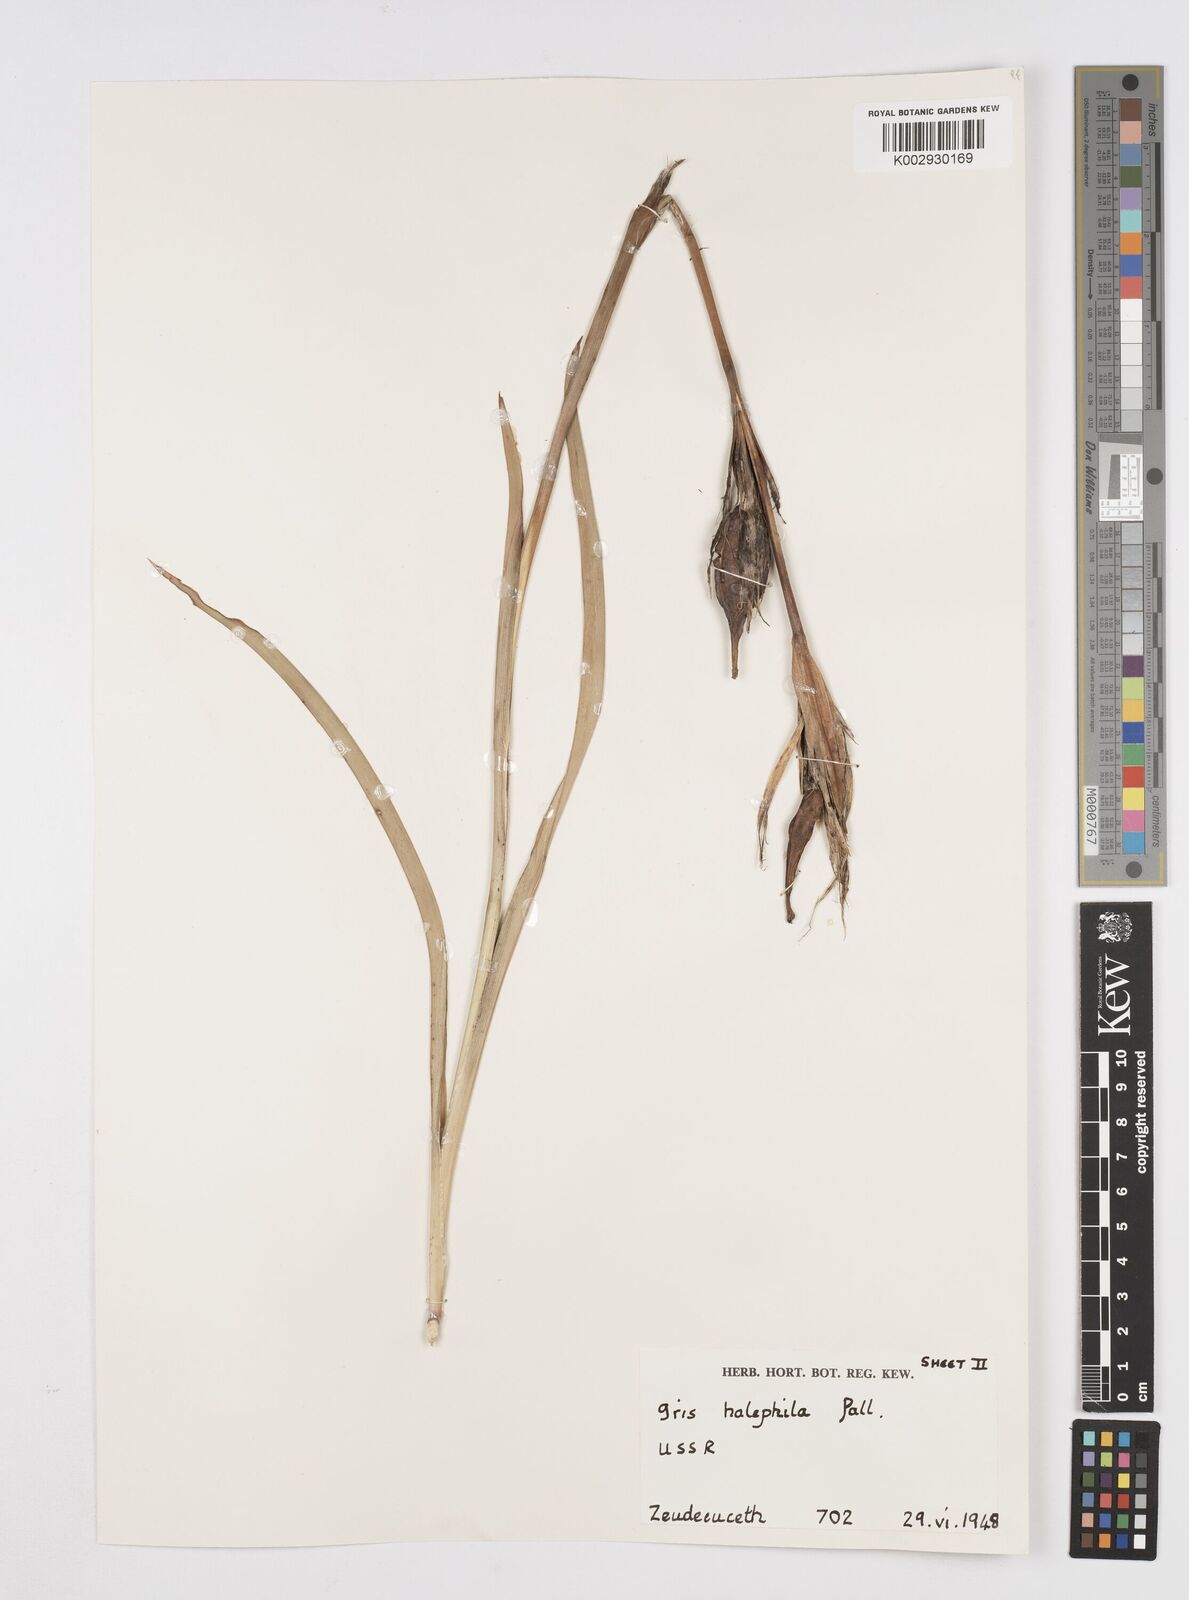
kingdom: Plantae
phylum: Tracheophyta
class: Liliopsida
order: Asparagales
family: Iridaceae
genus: Iris
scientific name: Iris halophila
